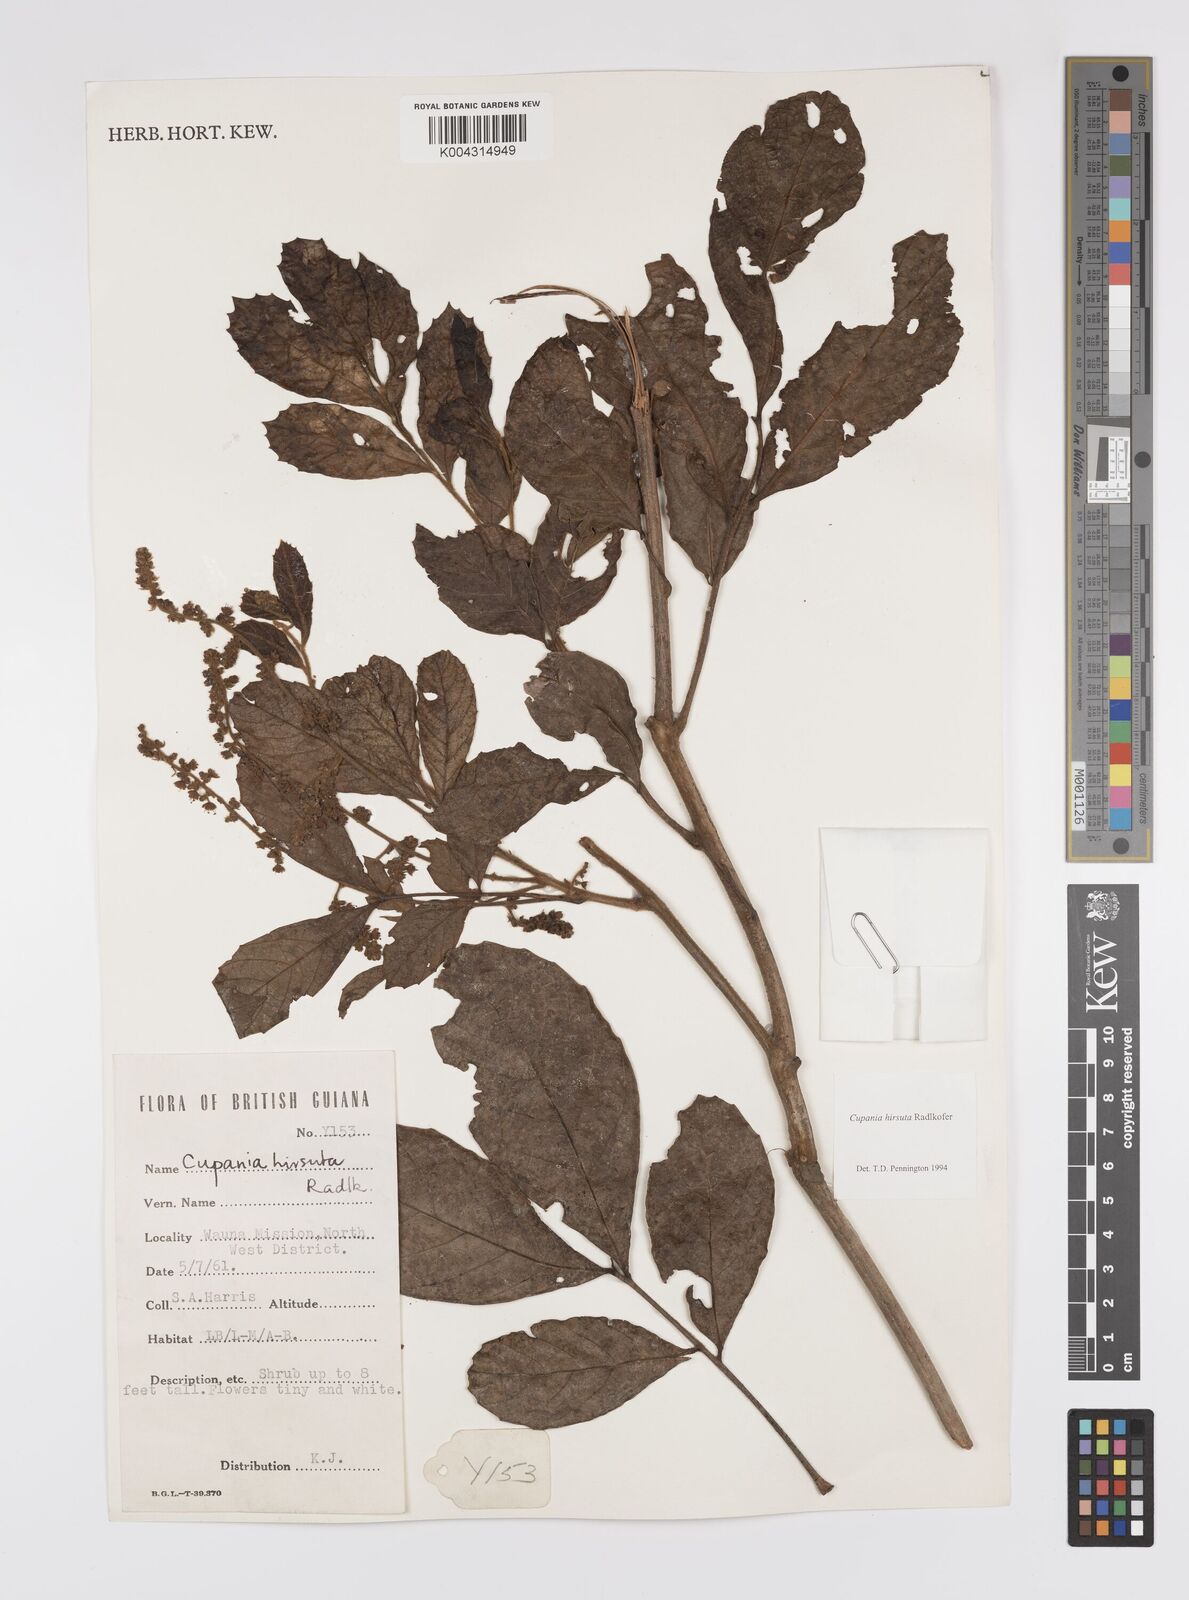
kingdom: Plantae
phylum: Tracheophyta
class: Magnoliopsida
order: Sapindales
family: Sapindaceae
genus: Cupania
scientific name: Cupania hirsuta
